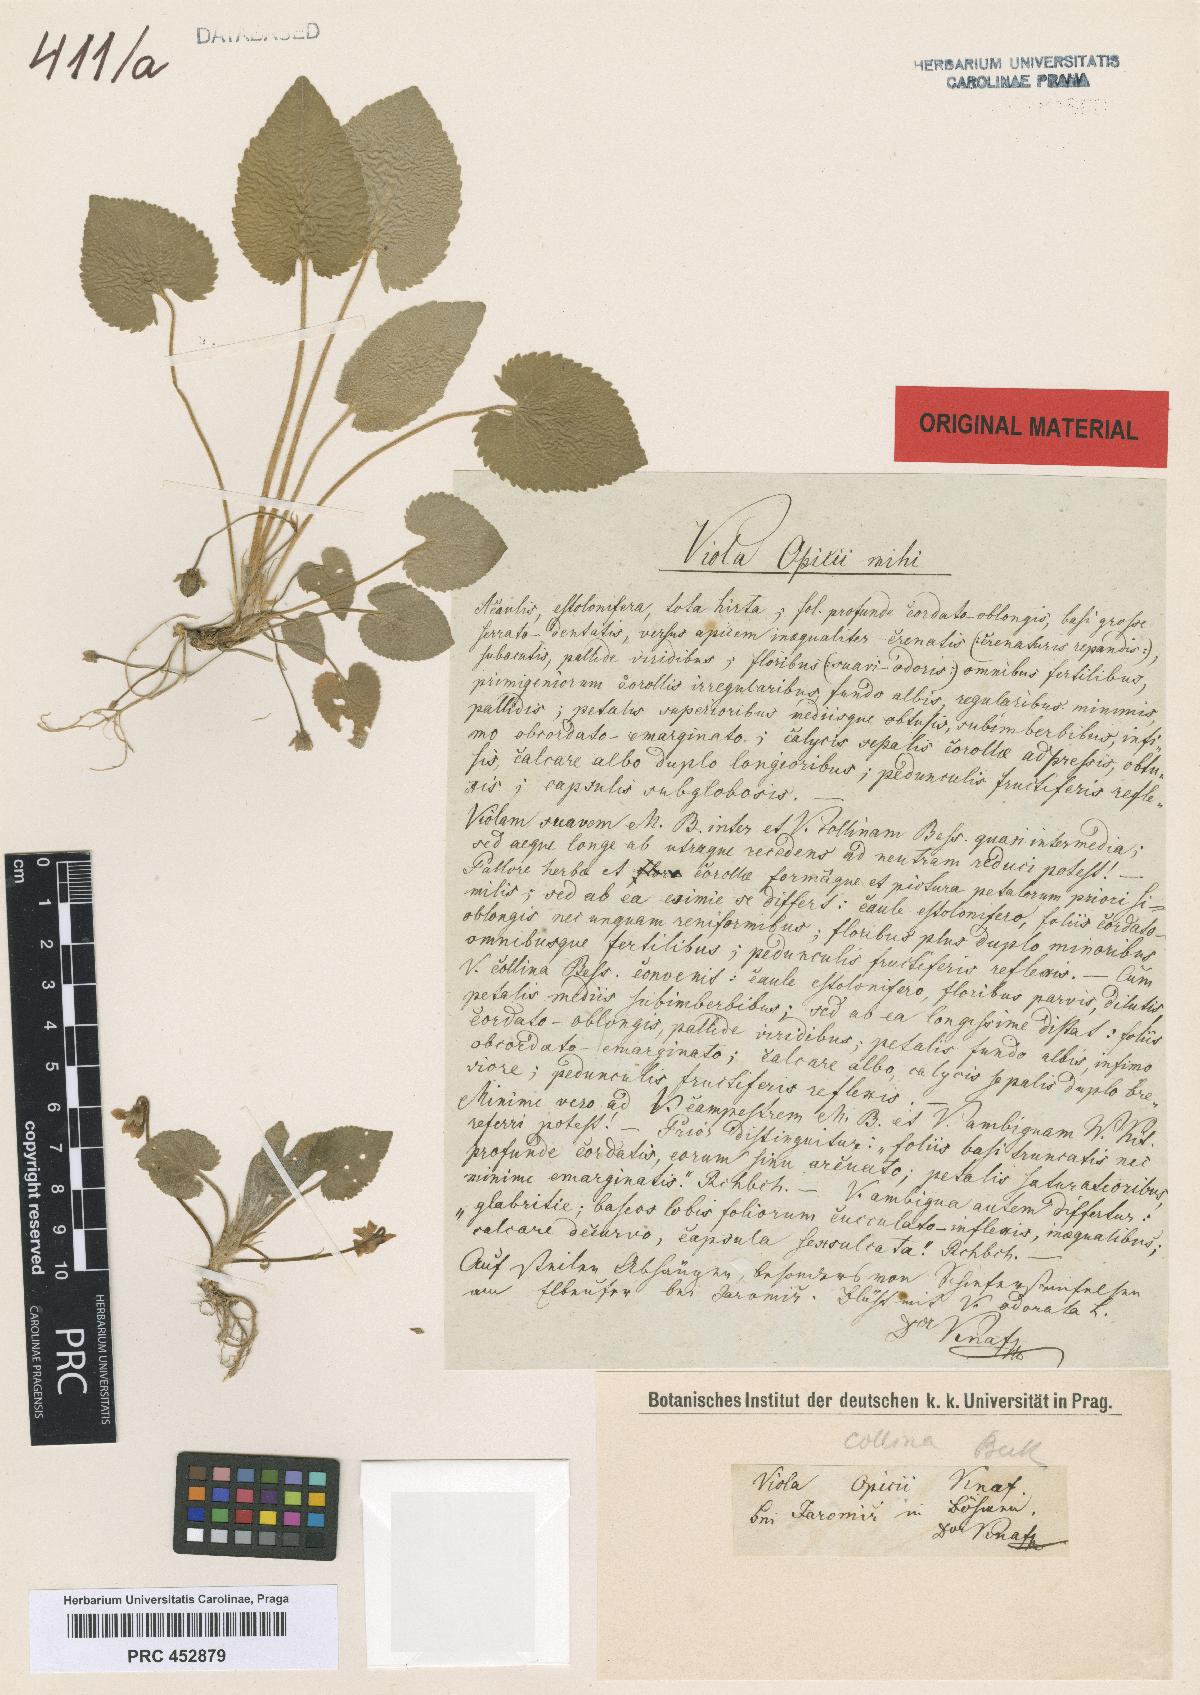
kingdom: Plantae
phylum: Tracheophyta
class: Magnoliopsida
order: Malpighiales
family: Violaceae
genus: Viola
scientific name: Viola collina
